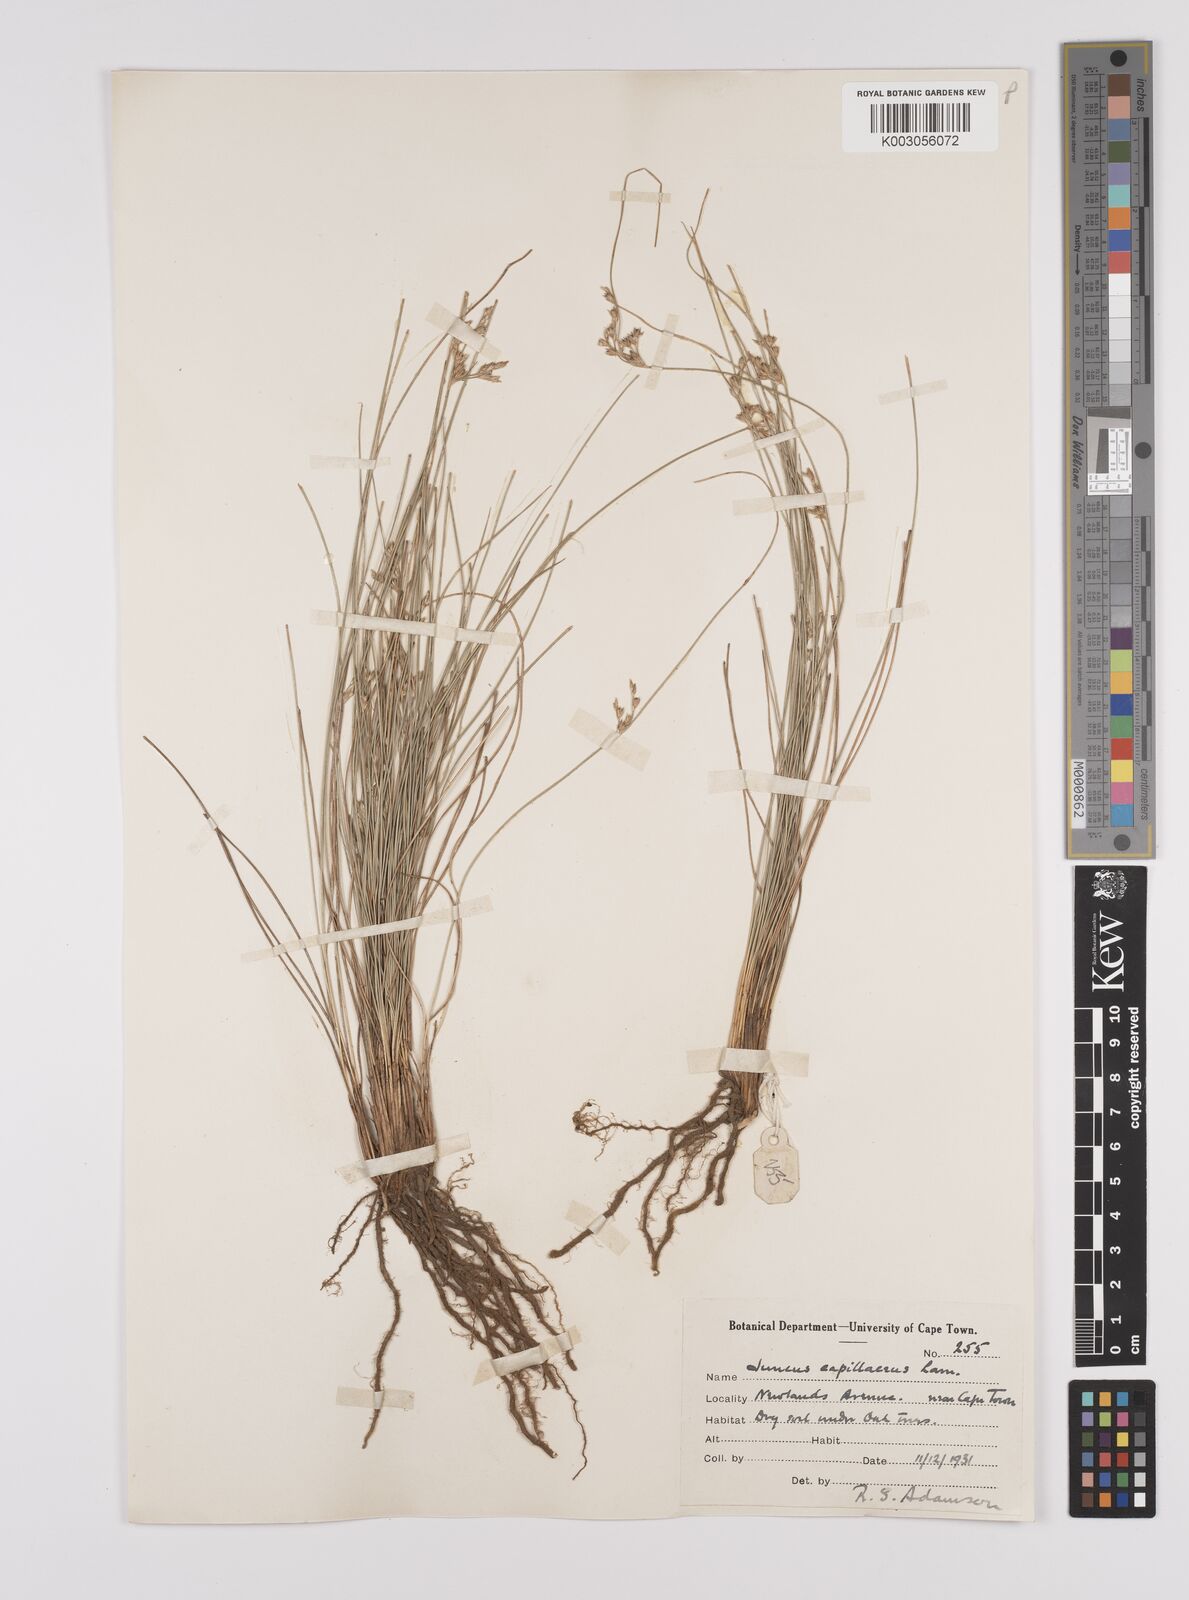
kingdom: Plantae
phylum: Tracheophyta
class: Liliopsida
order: Poales
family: Juncaceae
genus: Juncus
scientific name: Juncus capillaceus
